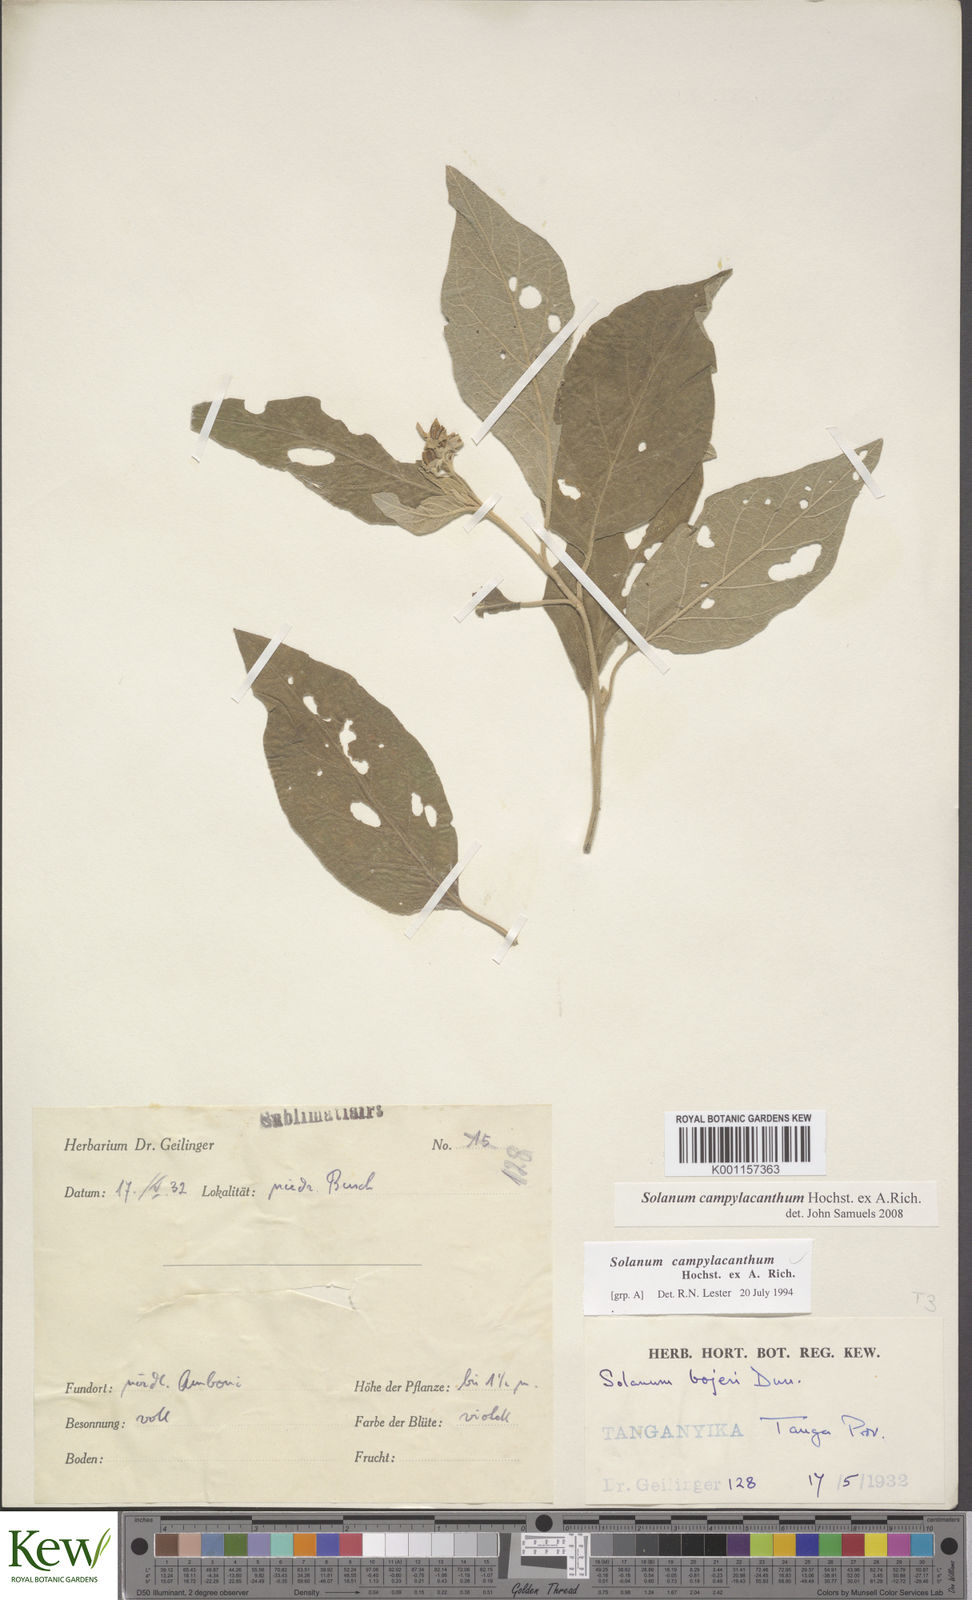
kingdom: Plantae
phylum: Tracheophyta
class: Magnoliopsida
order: Solanales
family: Solanaceae
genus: Solanum
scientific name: Solanum campylacanthum
